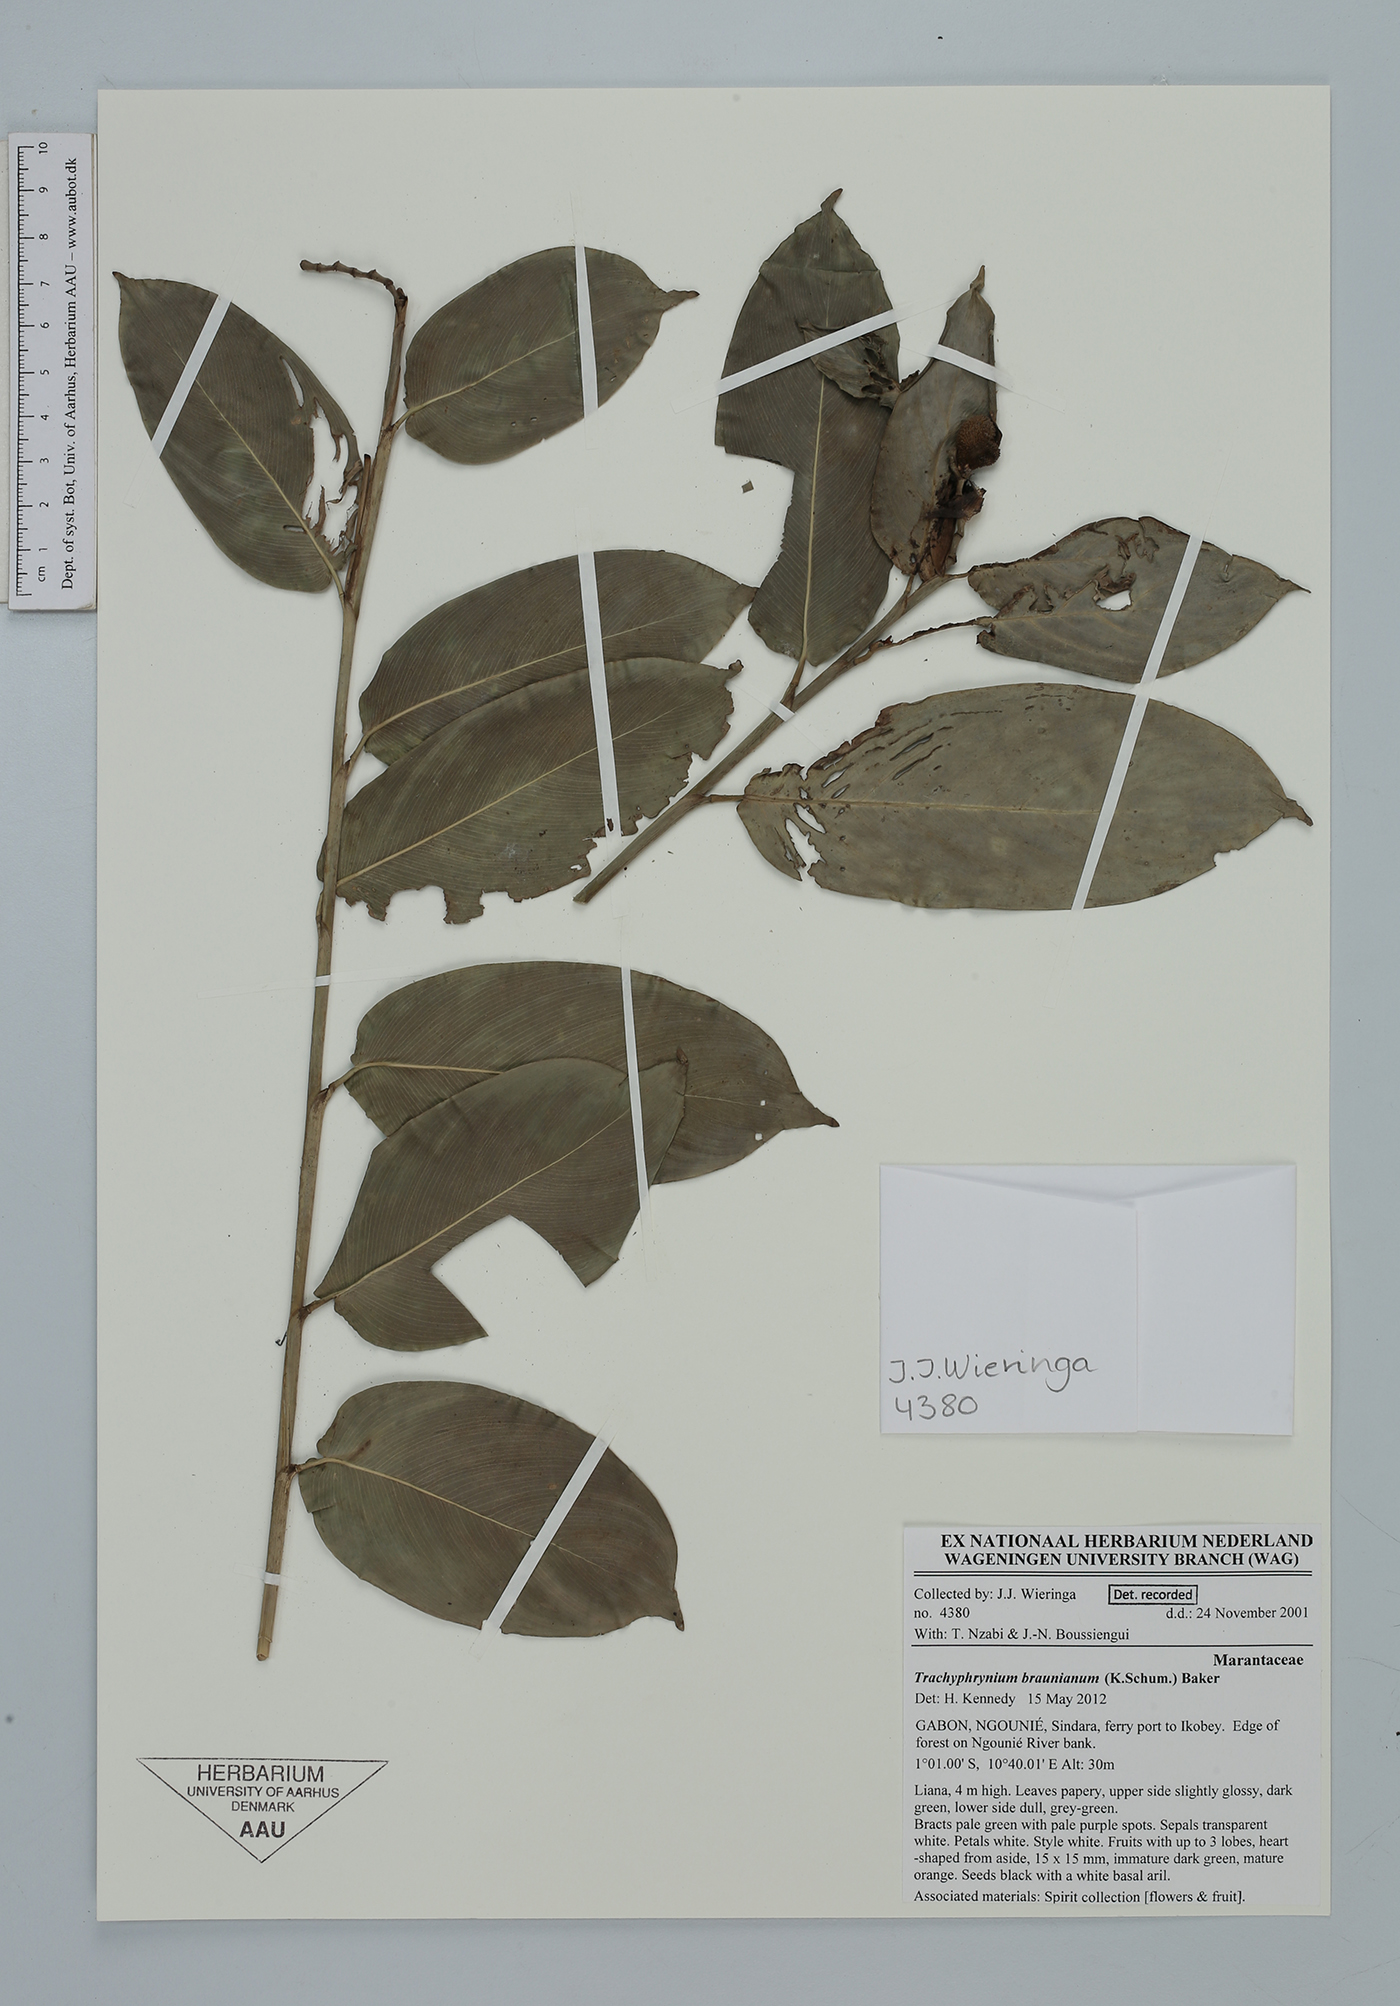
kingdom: Plantae
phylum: Tracheophyta
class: Liliopsida
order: Zingiberales
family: Marantaceae
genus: Trachyphrynium
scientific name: Trachyphrynium braunianum
